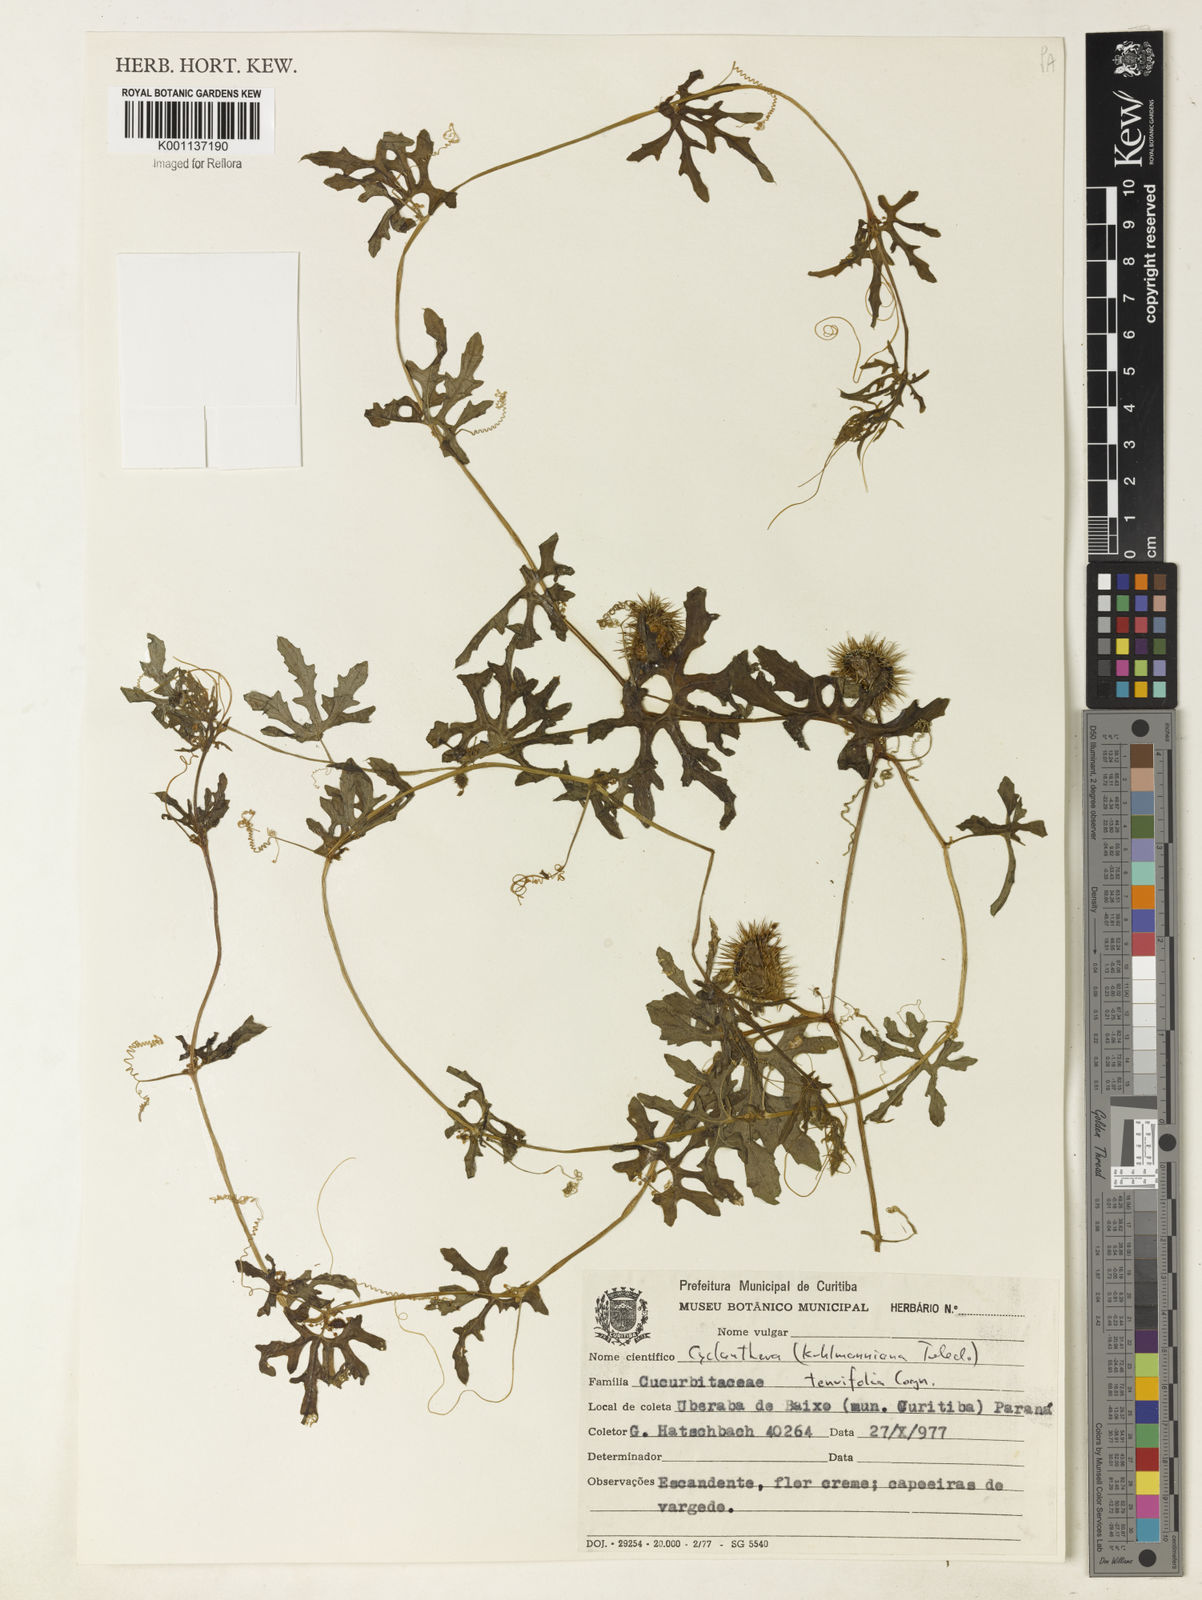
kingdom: Plantae
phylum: Tracheophyta
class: Magnoliopsida
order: Cucurbitales
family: Cucurbitaceae
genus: Cyclanthera
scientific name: Cyclanthera tenuifolia
